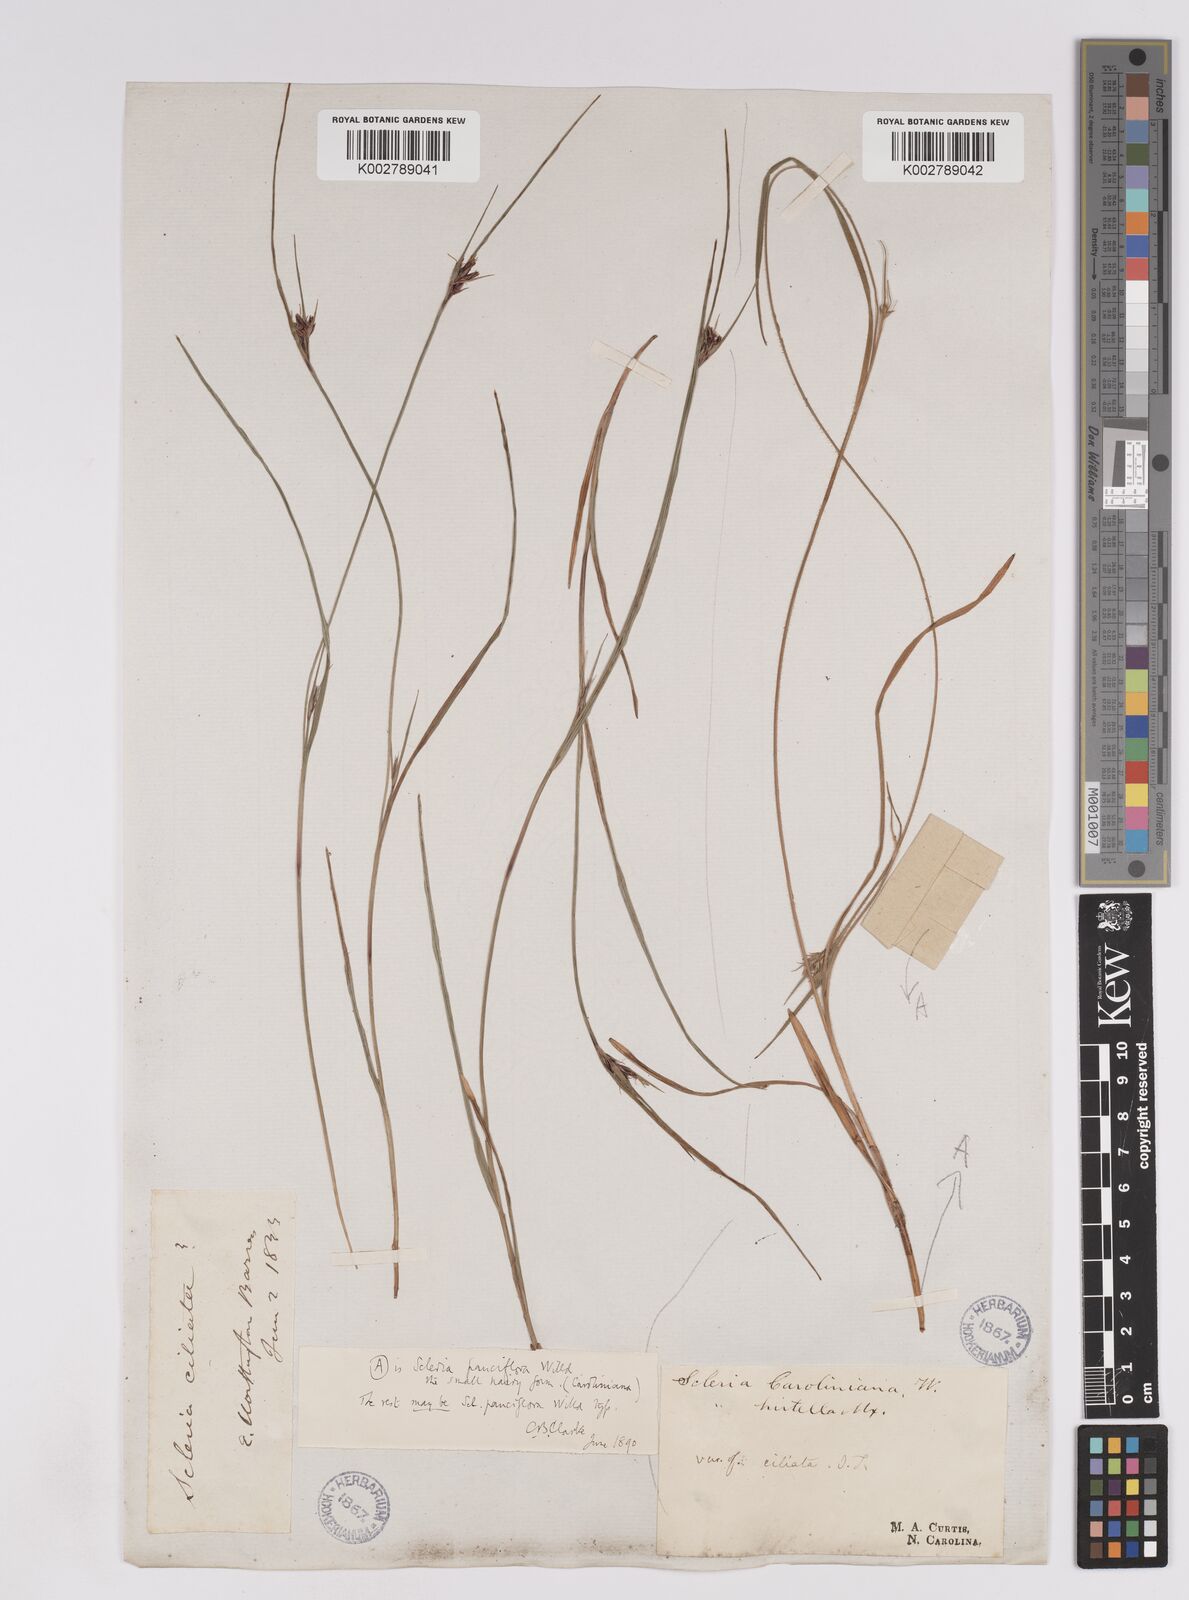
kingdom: Plantae
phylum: Tracheophyta
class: Liliopsida
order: Poales
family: Cyperaceae
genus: Scleria
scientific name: Scleria pauciflora
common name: Few-flowered nutrush
